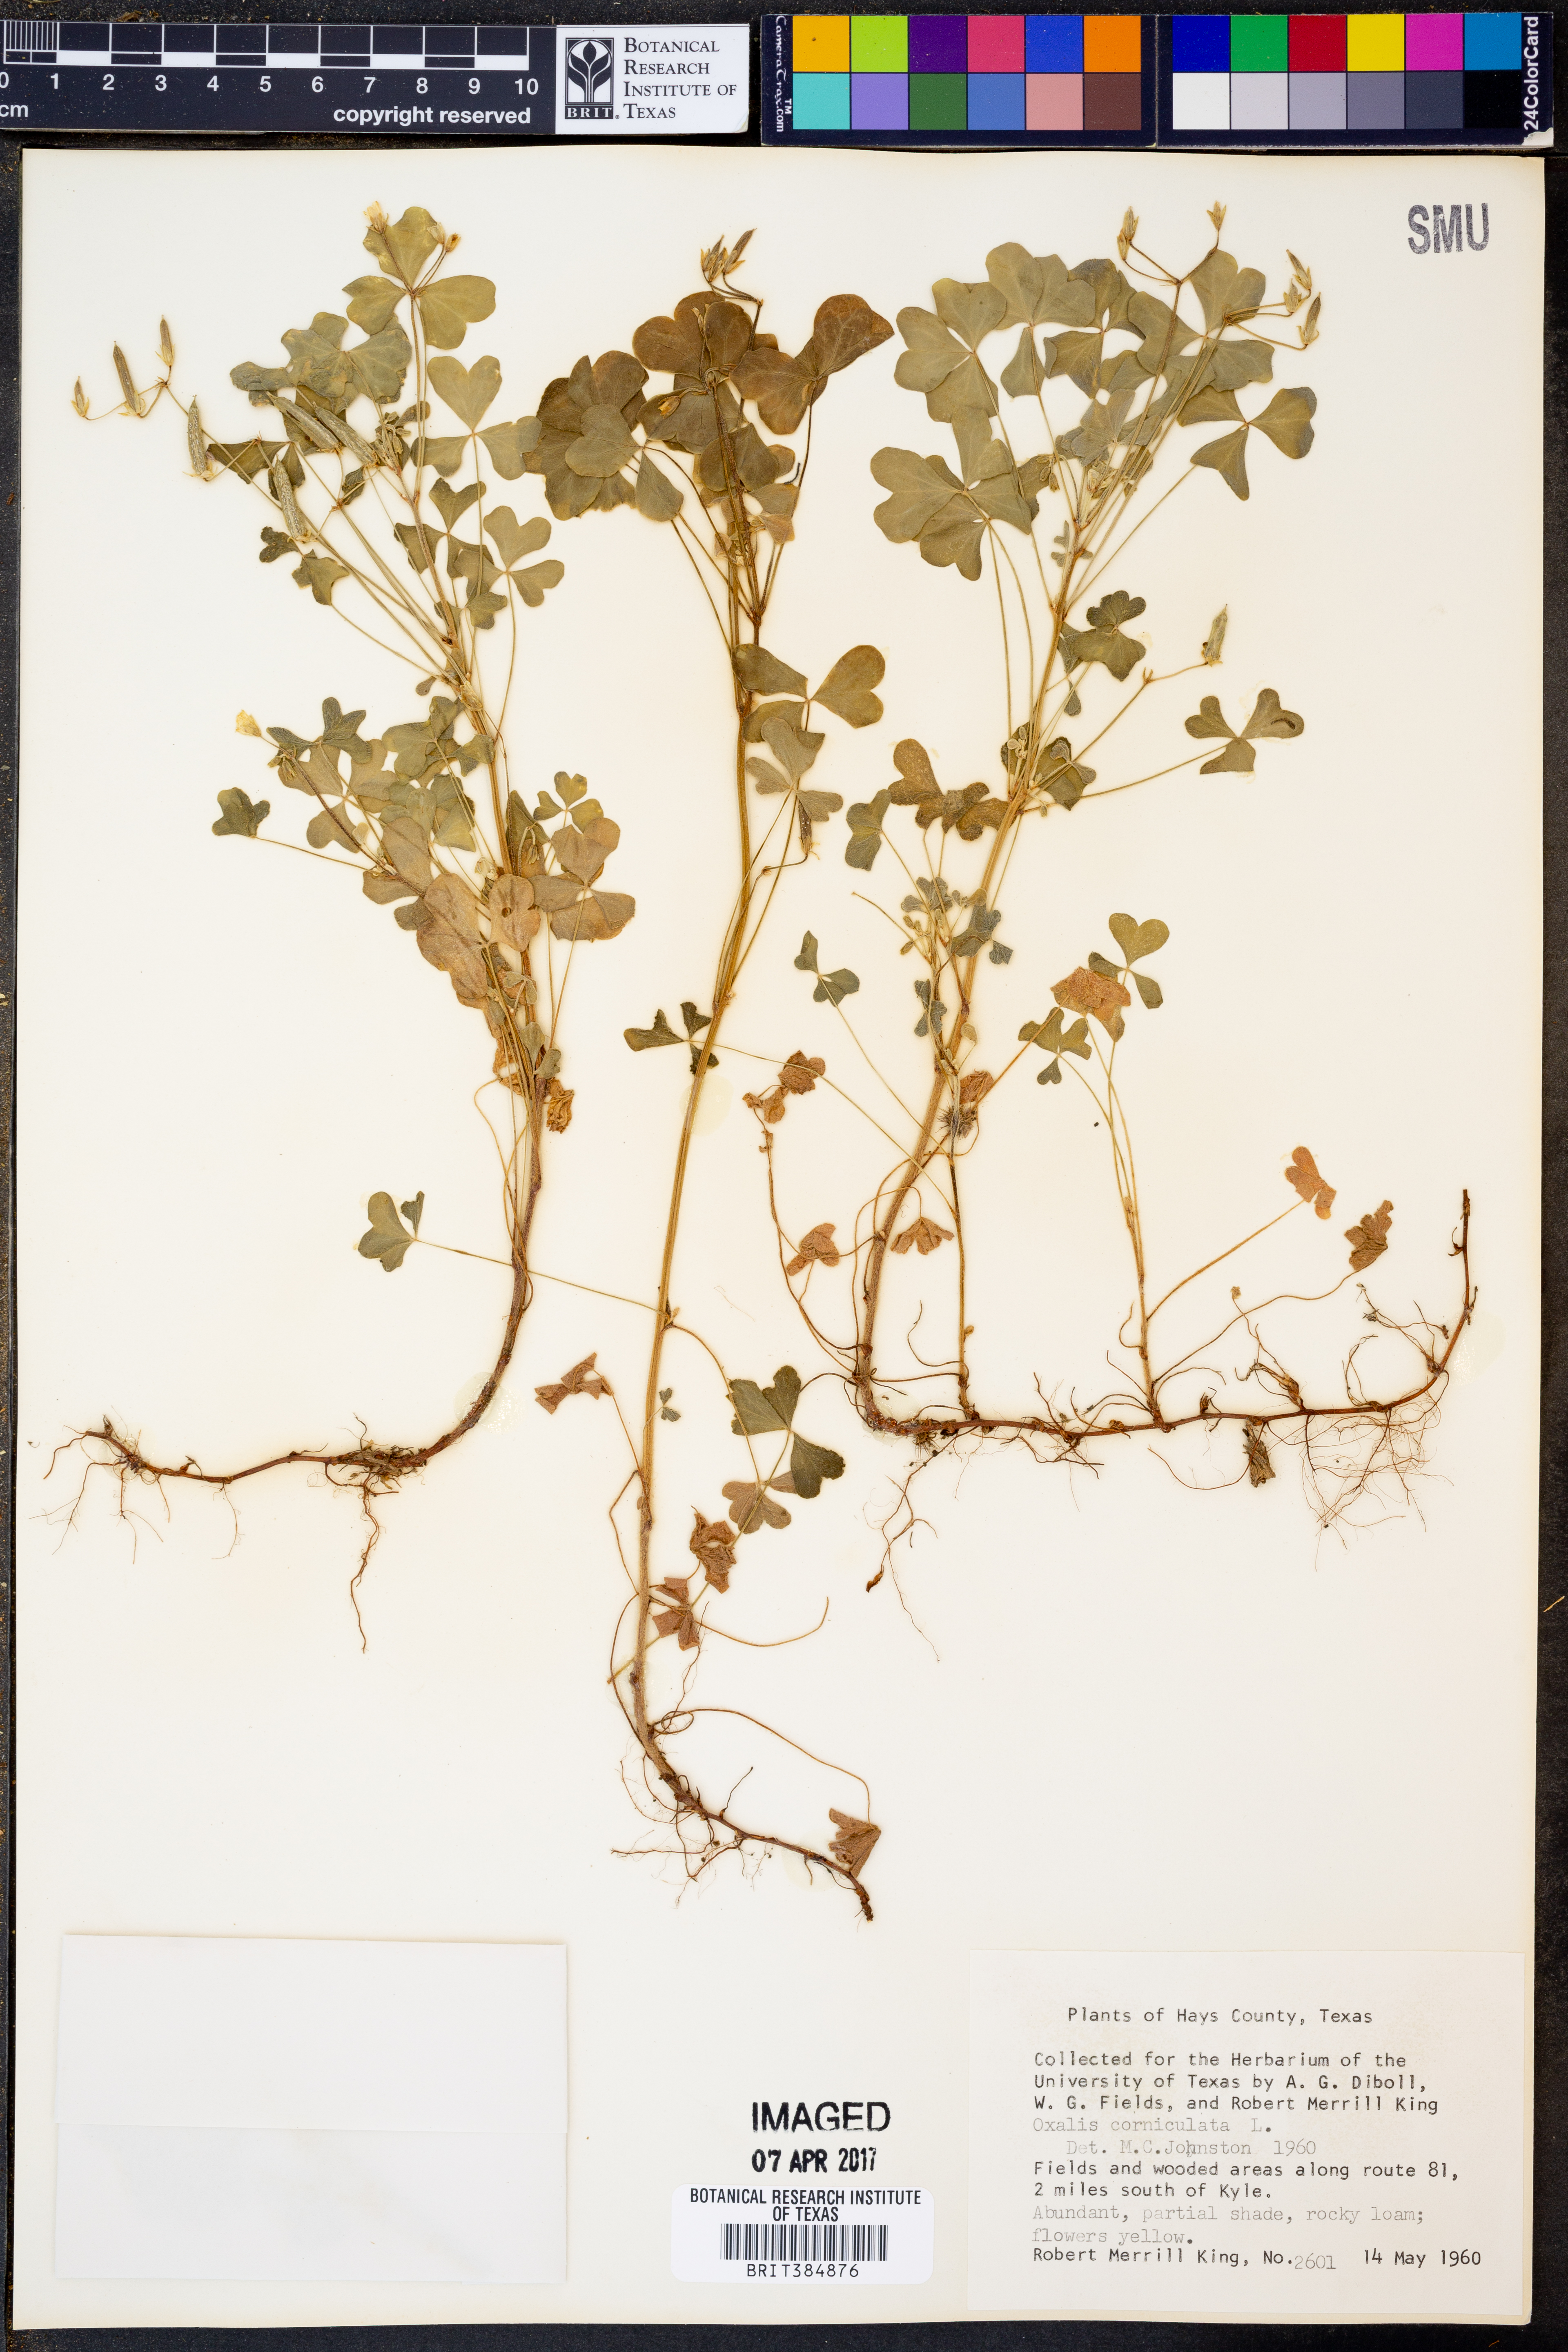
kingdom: Plantae
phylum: Tracheophyta
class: Magnoliopsida
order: Oxalidales
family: Oxalidaceae
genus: Oxalis
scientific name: Oxalis corniculata
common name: Procumbent yellow-sorrel
